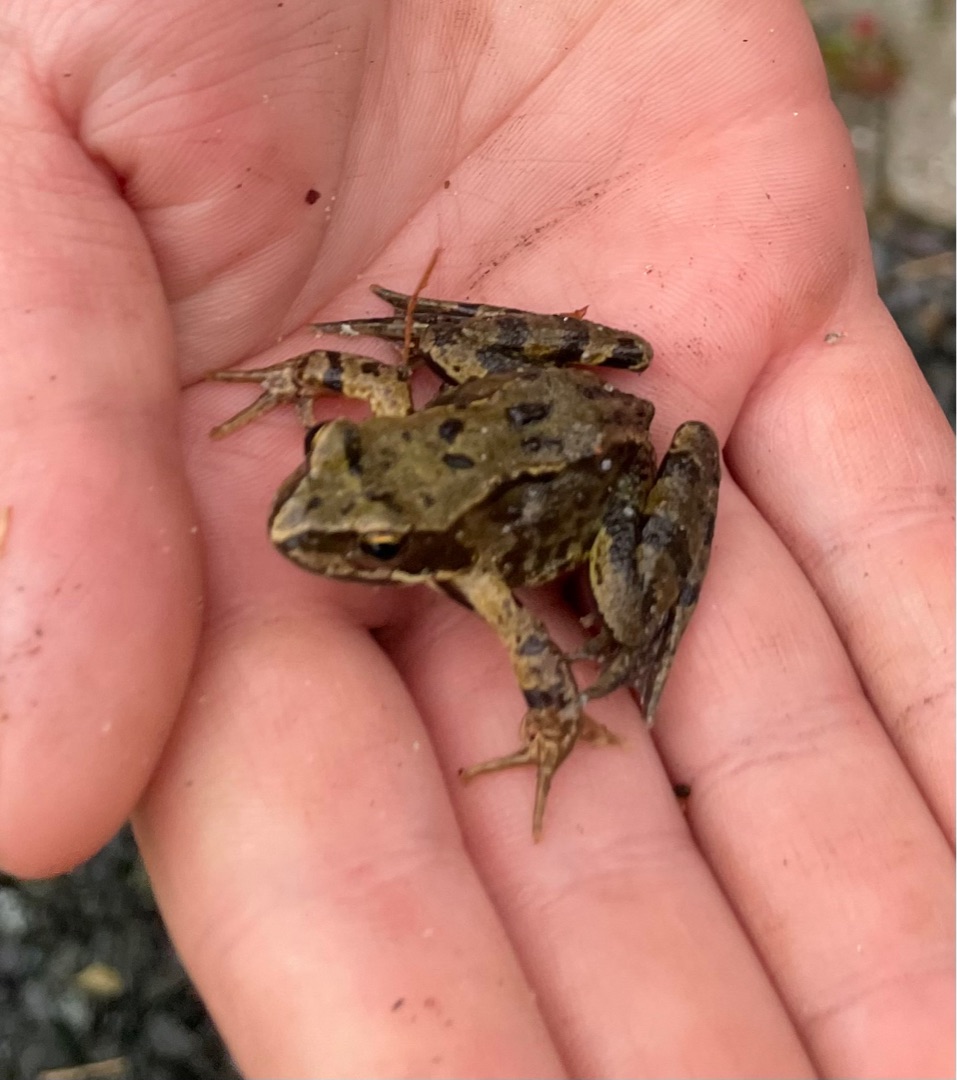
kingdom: Animalia
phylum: Chordata
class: Amphibia
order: Anura
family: Ranidae
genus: Rana
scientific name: Rana temporaria
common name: Butsnudet frø
